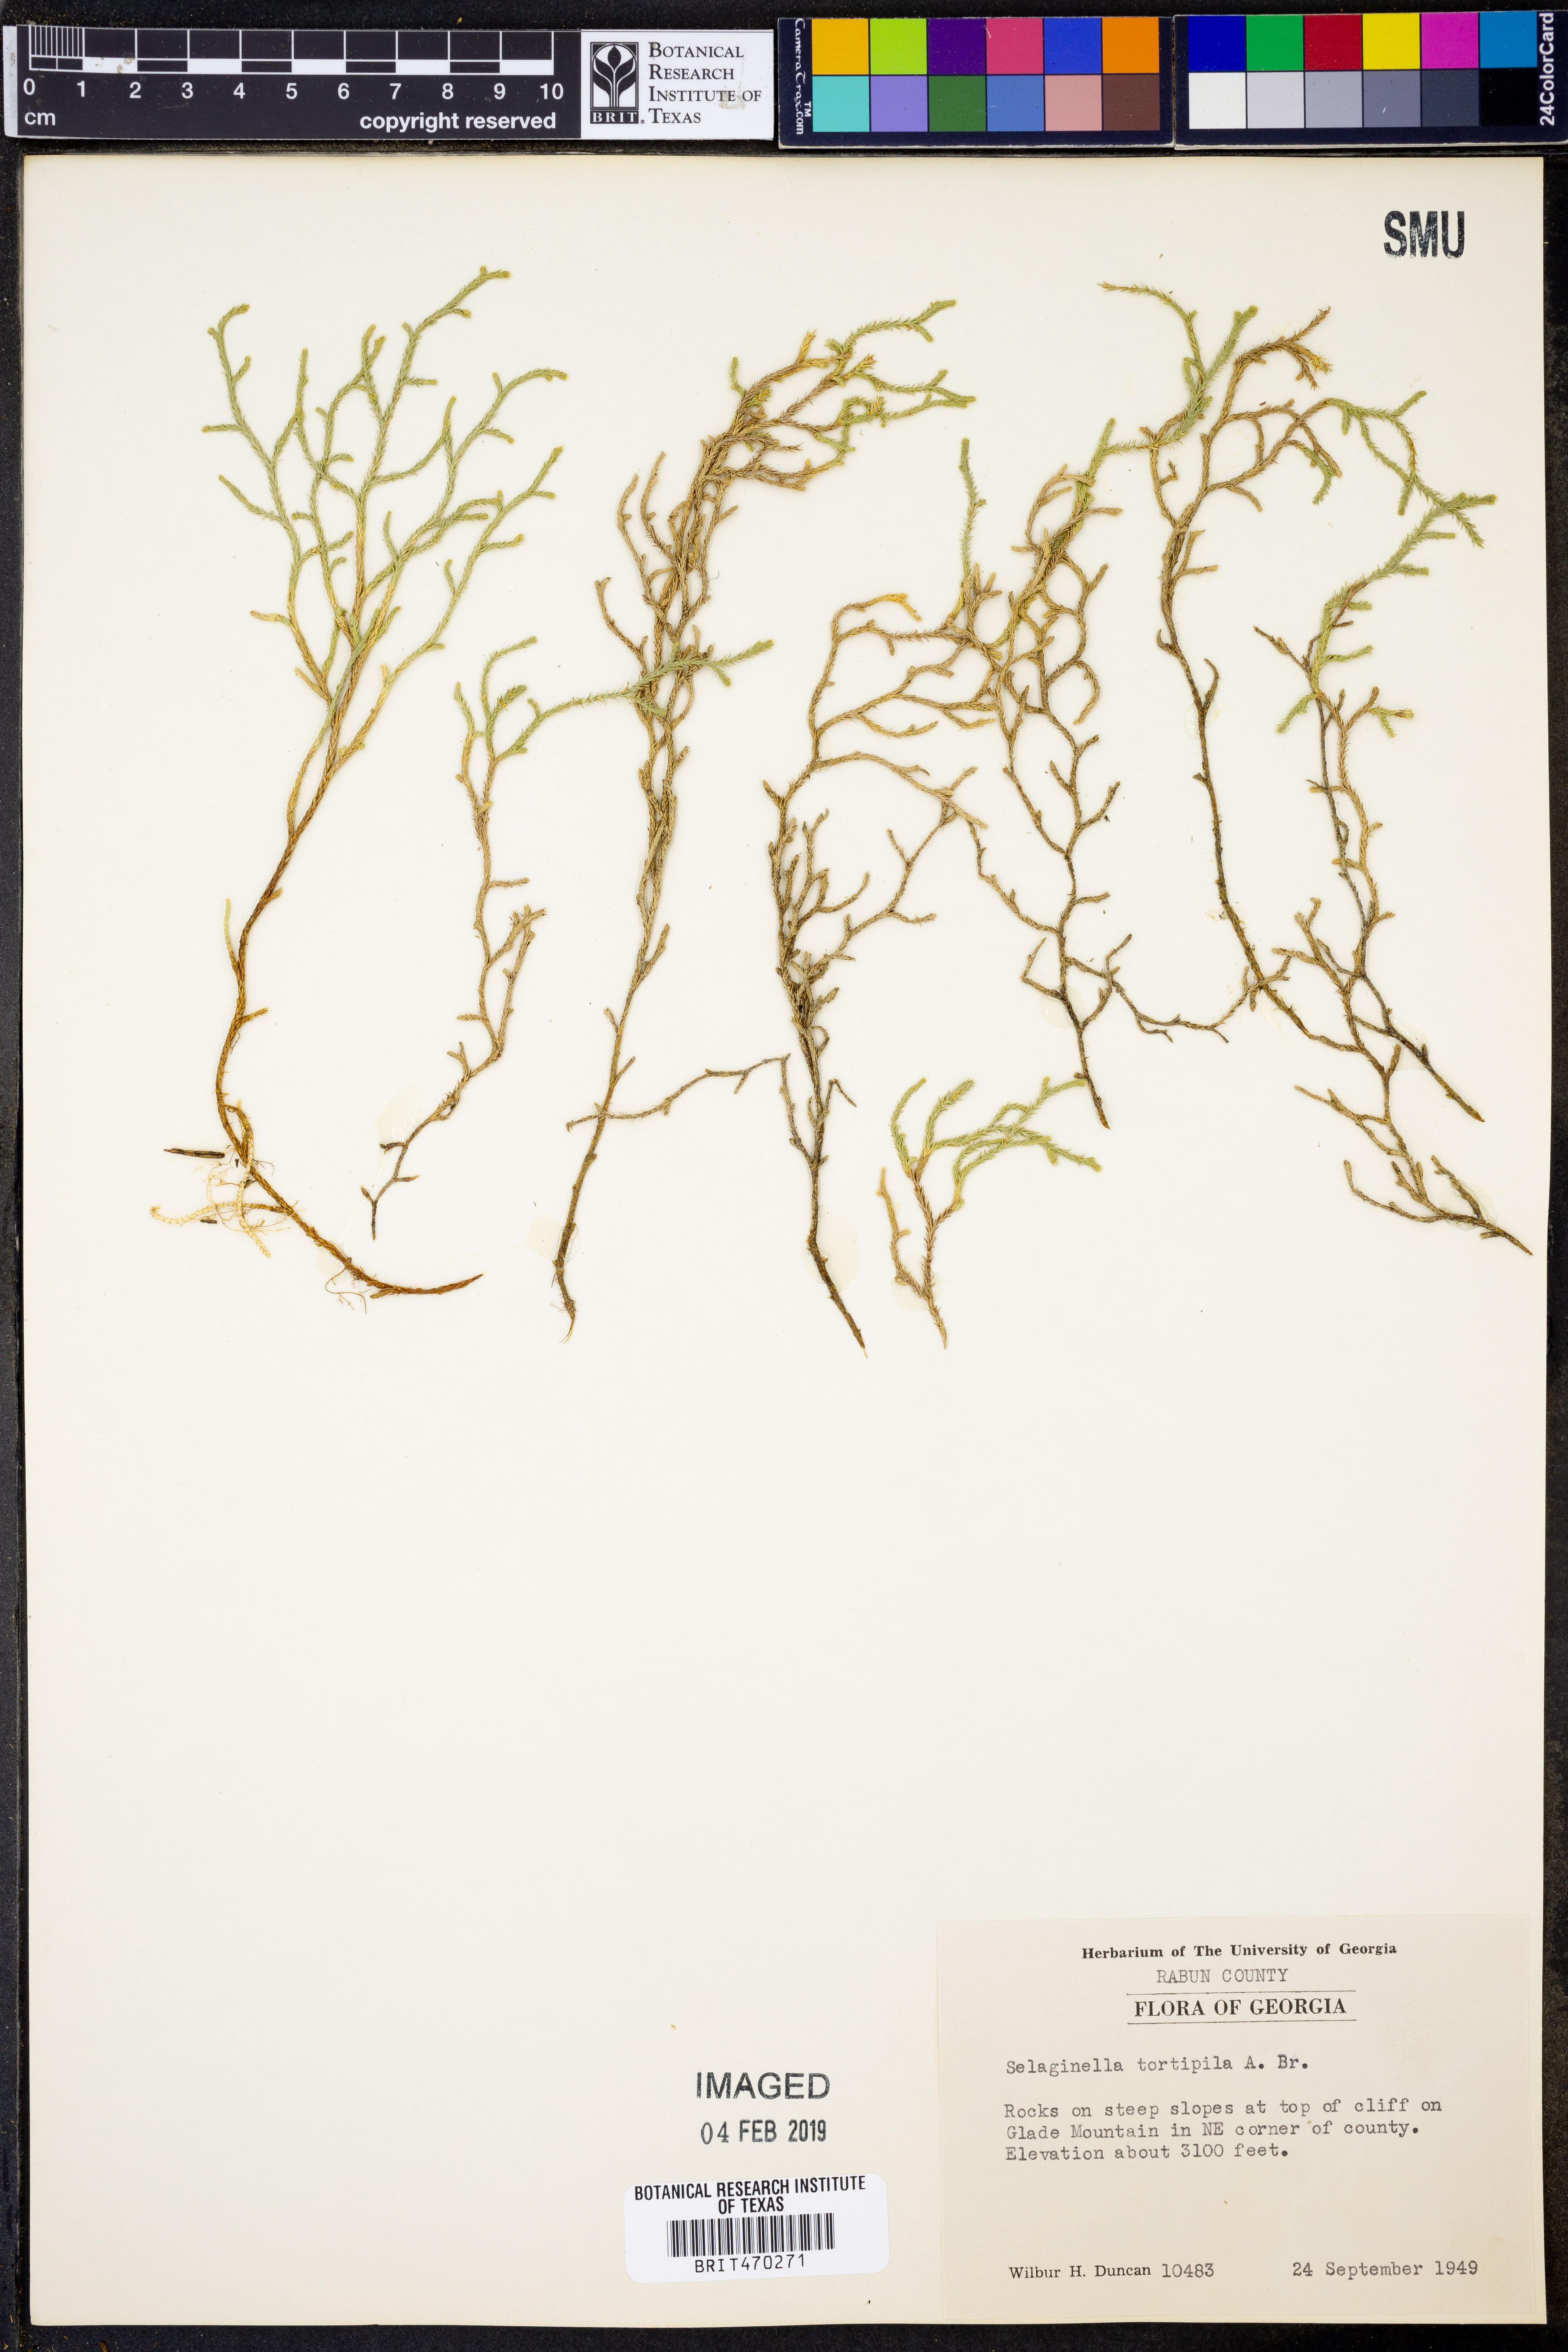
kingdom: Plantae
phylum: Tracheophyta
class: Lycopodiopsida
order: Selaginellales
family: Selaginellaceae
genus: Selaginella
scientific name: Selaginella tortipila
